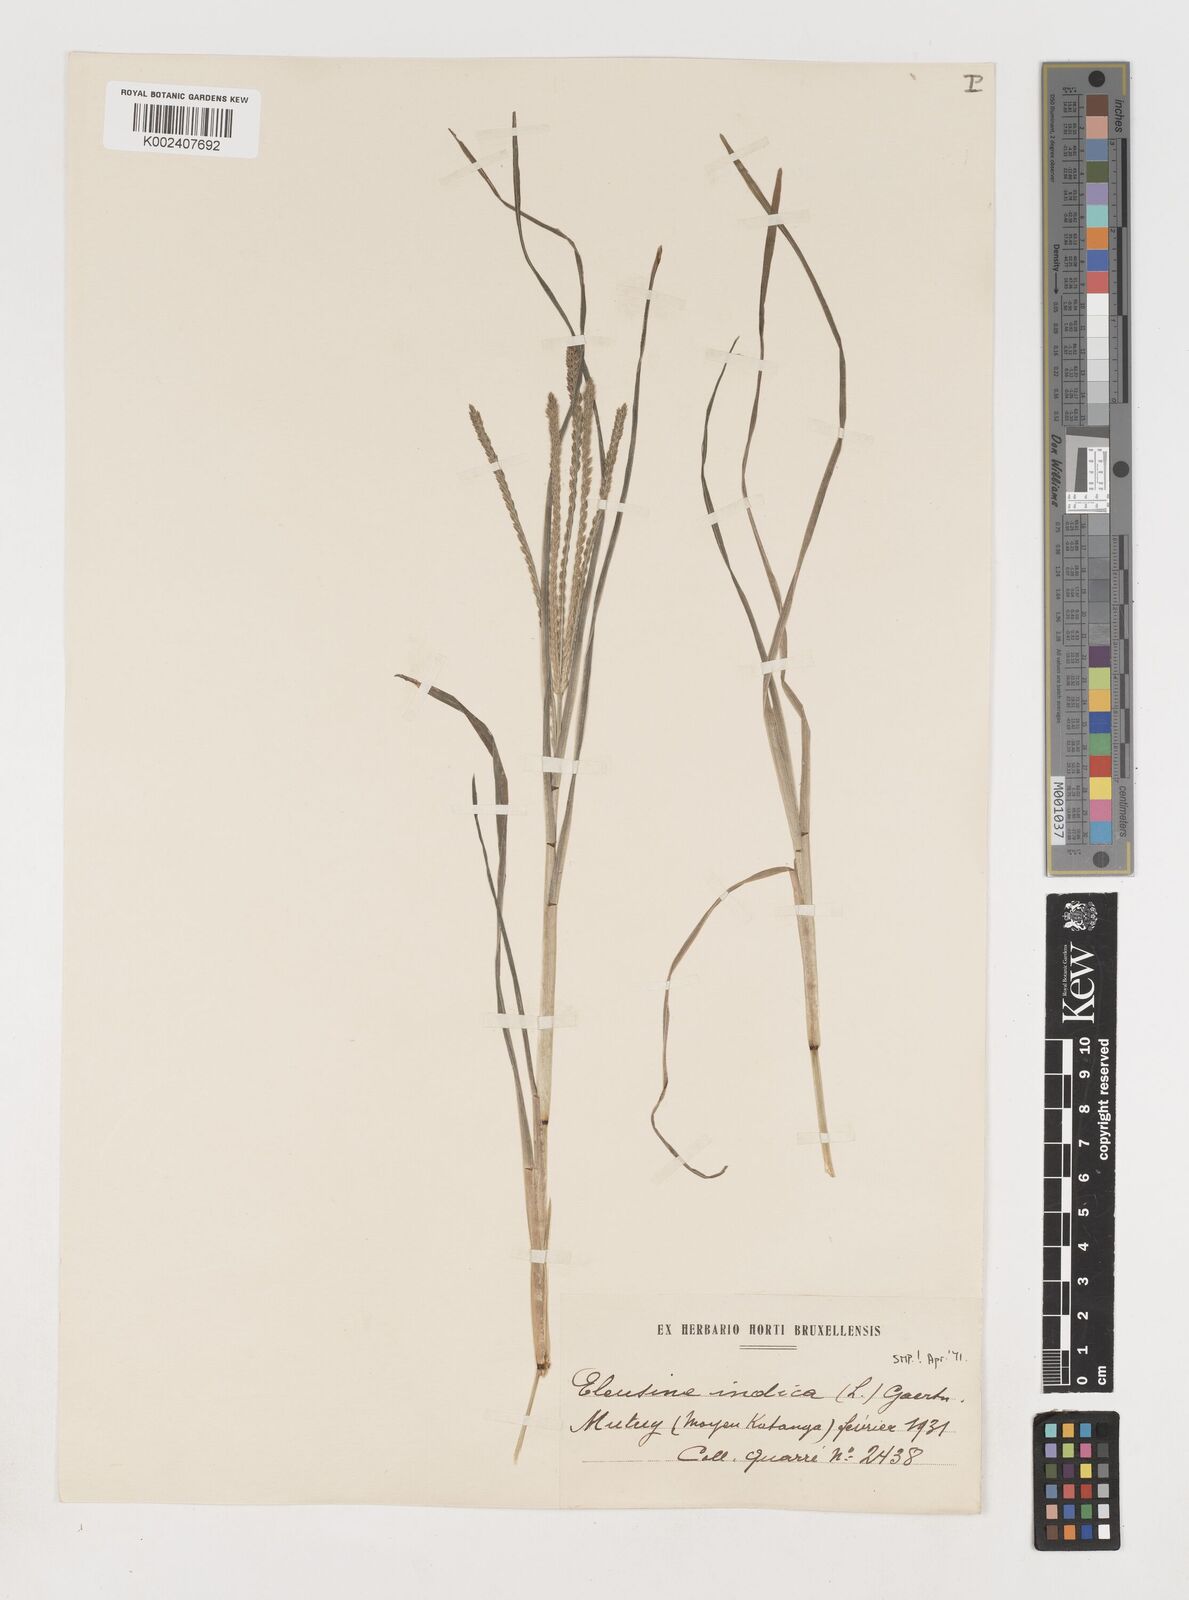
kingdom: Plantae
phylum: Tracheophyta
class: Liliopsida
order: Poales
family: Poaceae
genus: Eleusine
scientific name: Eleusine indica
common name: Yard-grass
